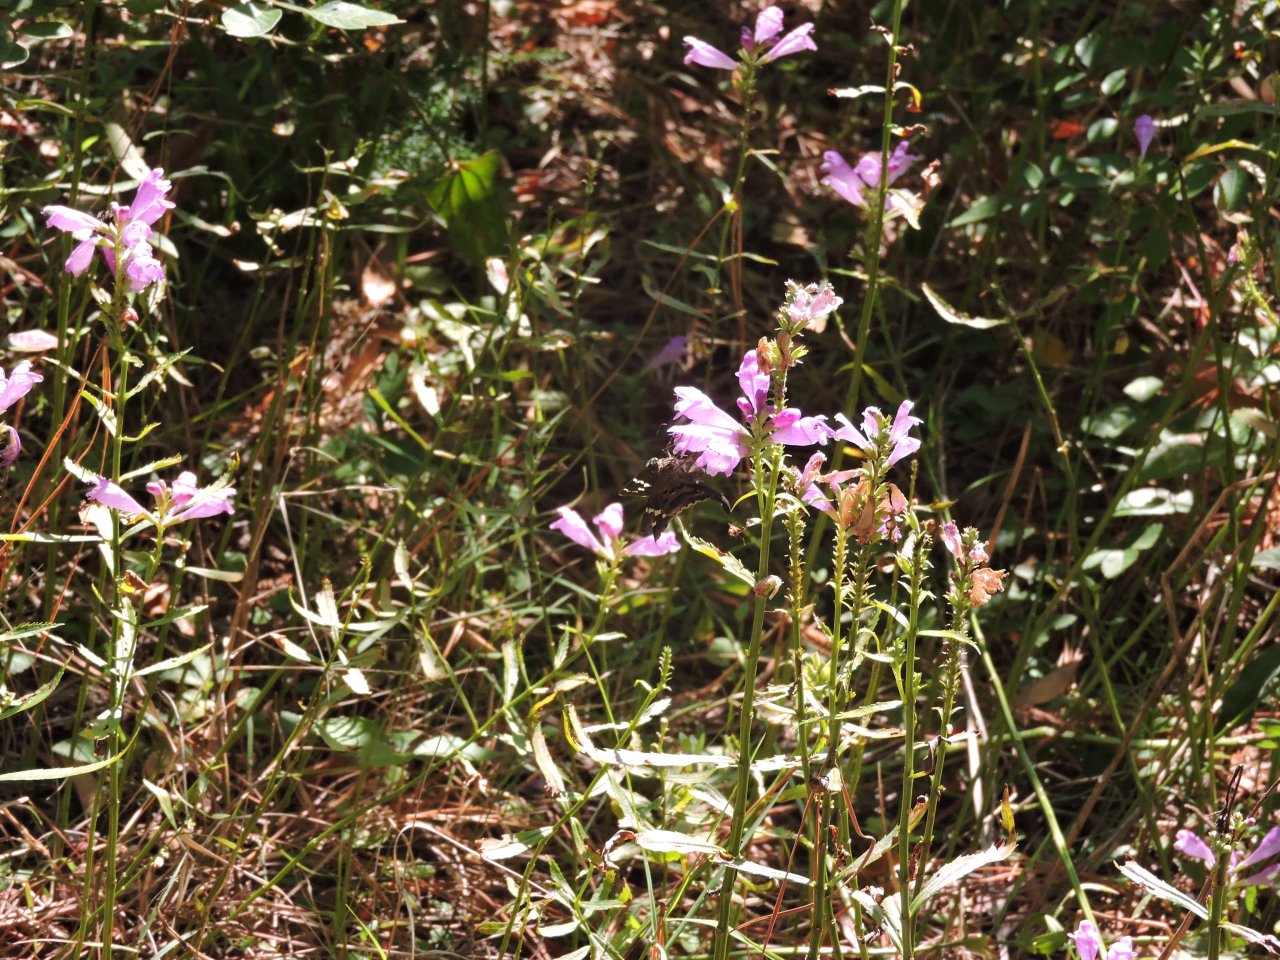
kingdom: Animalia
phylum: Arthropoda
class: Insecta
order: Lepidoptera
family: Hesperiidae
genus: Urbanus
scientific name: Urbanus proteus
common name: Long-tailed Skipper
